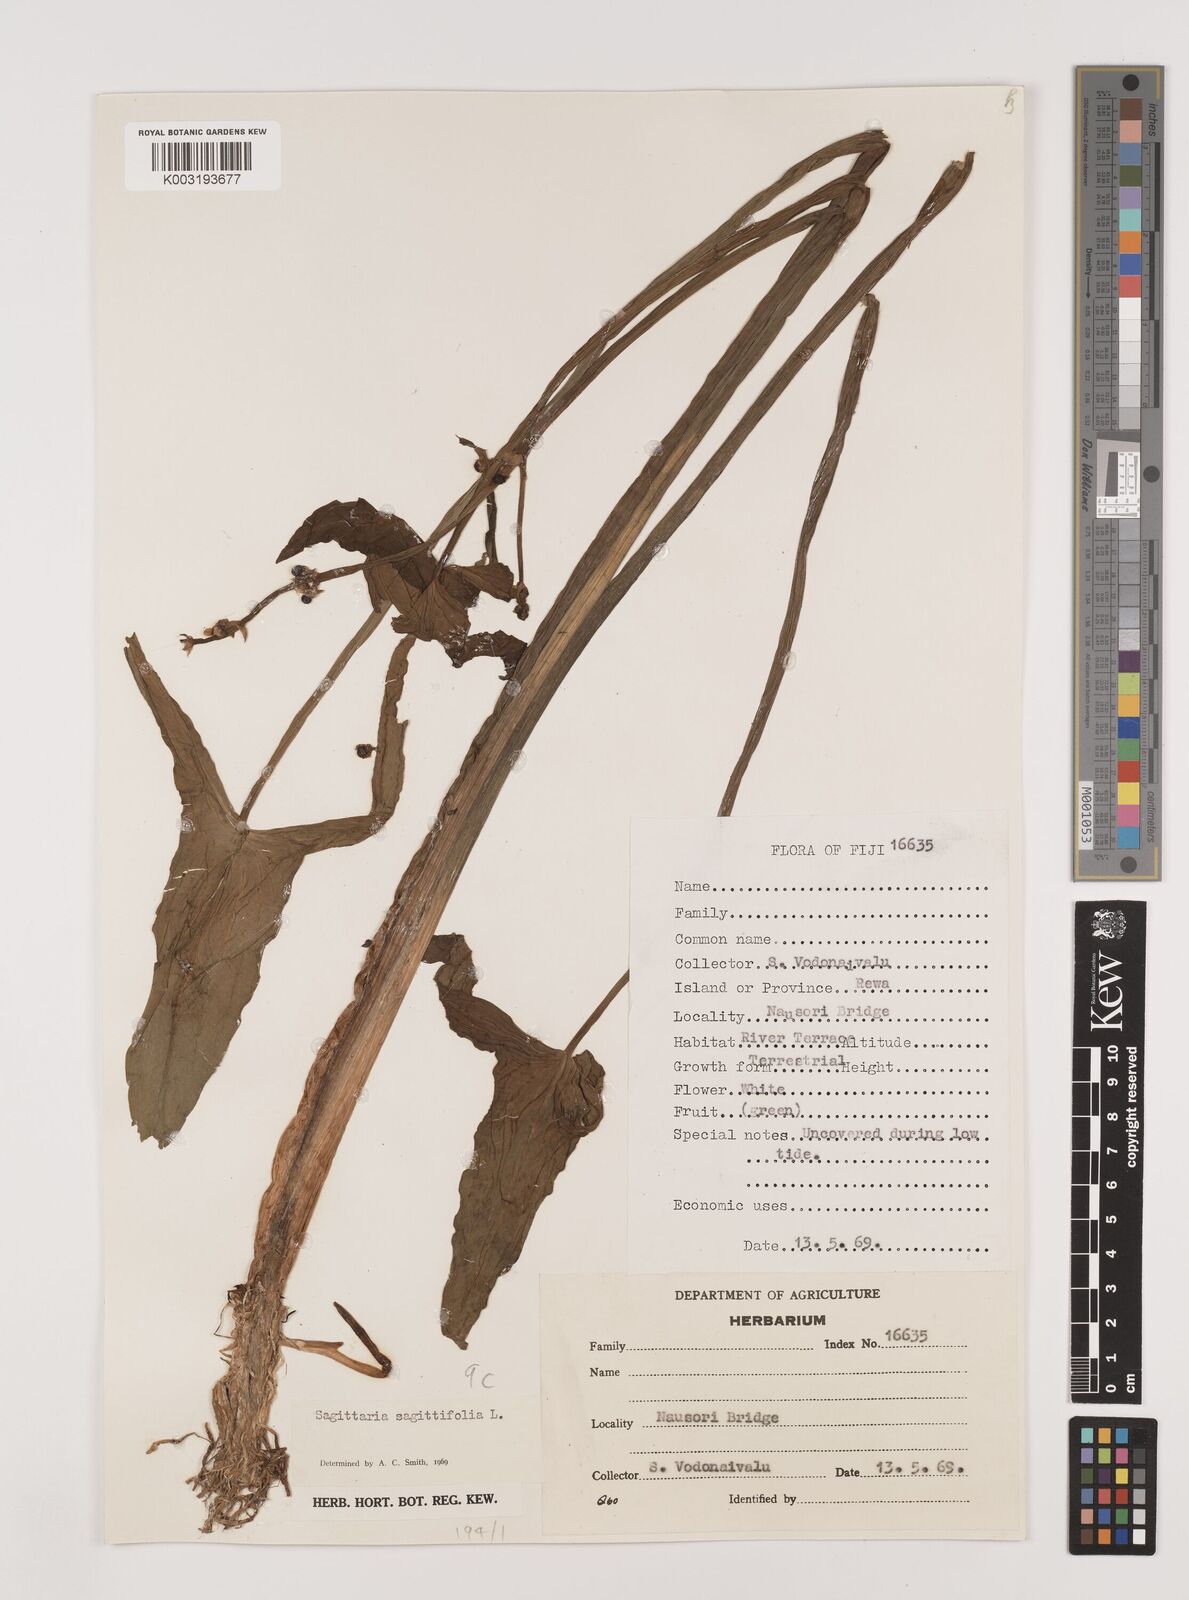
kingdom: Plantae
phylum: Tracheophyta
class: Liliopsida
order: Alismatales
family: Alismataceae
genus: Sagittaria
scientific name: Sagittaria trifolia
